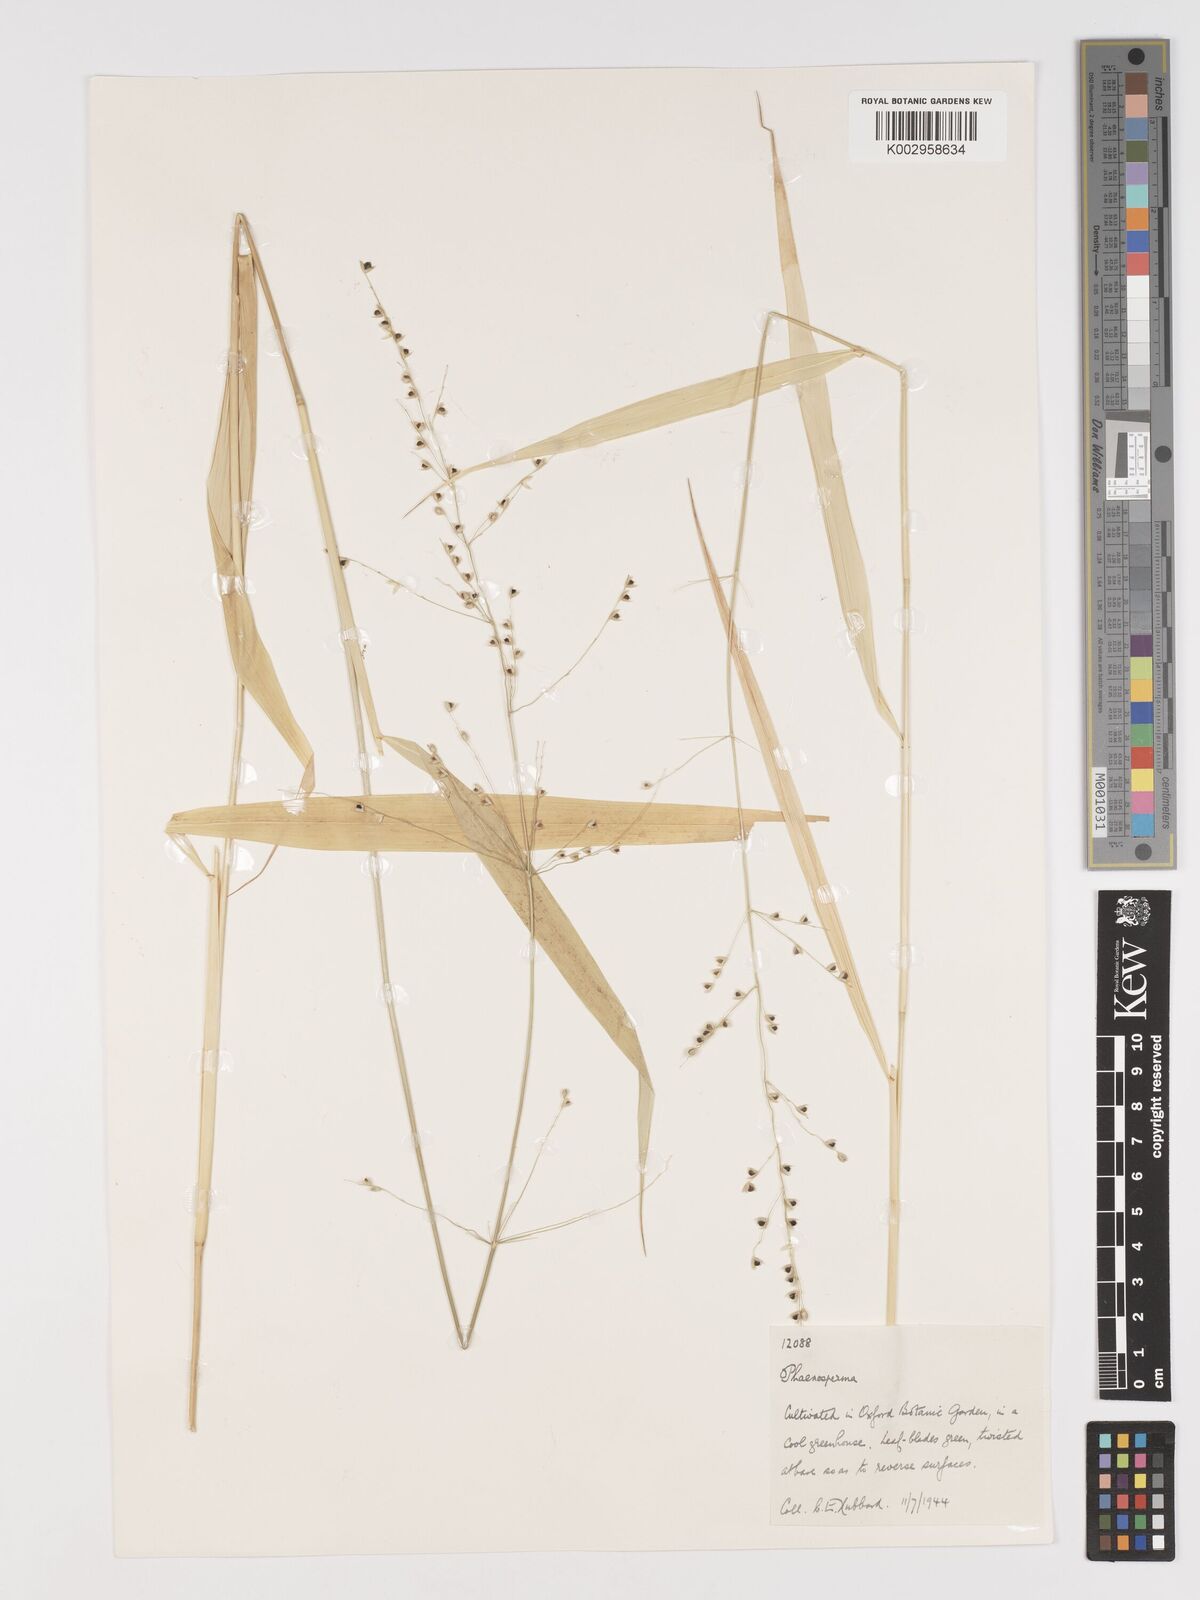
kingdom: Plantae
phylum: Tracheophyta
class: Liliopsida
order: Poales
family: Poaceae
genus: Phaenosperma
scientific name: Phaenosperma globosum
